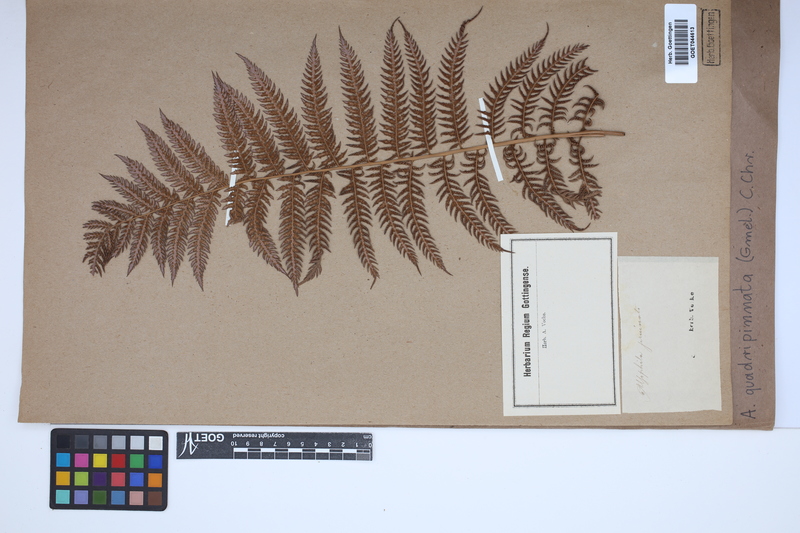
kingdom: Plantae
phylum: Tracheophyta
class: Polypodiopsida
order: Cyatheales
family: Dicksoniaceae
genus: Lophosoria
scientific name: Lophosoria quadripinnata
